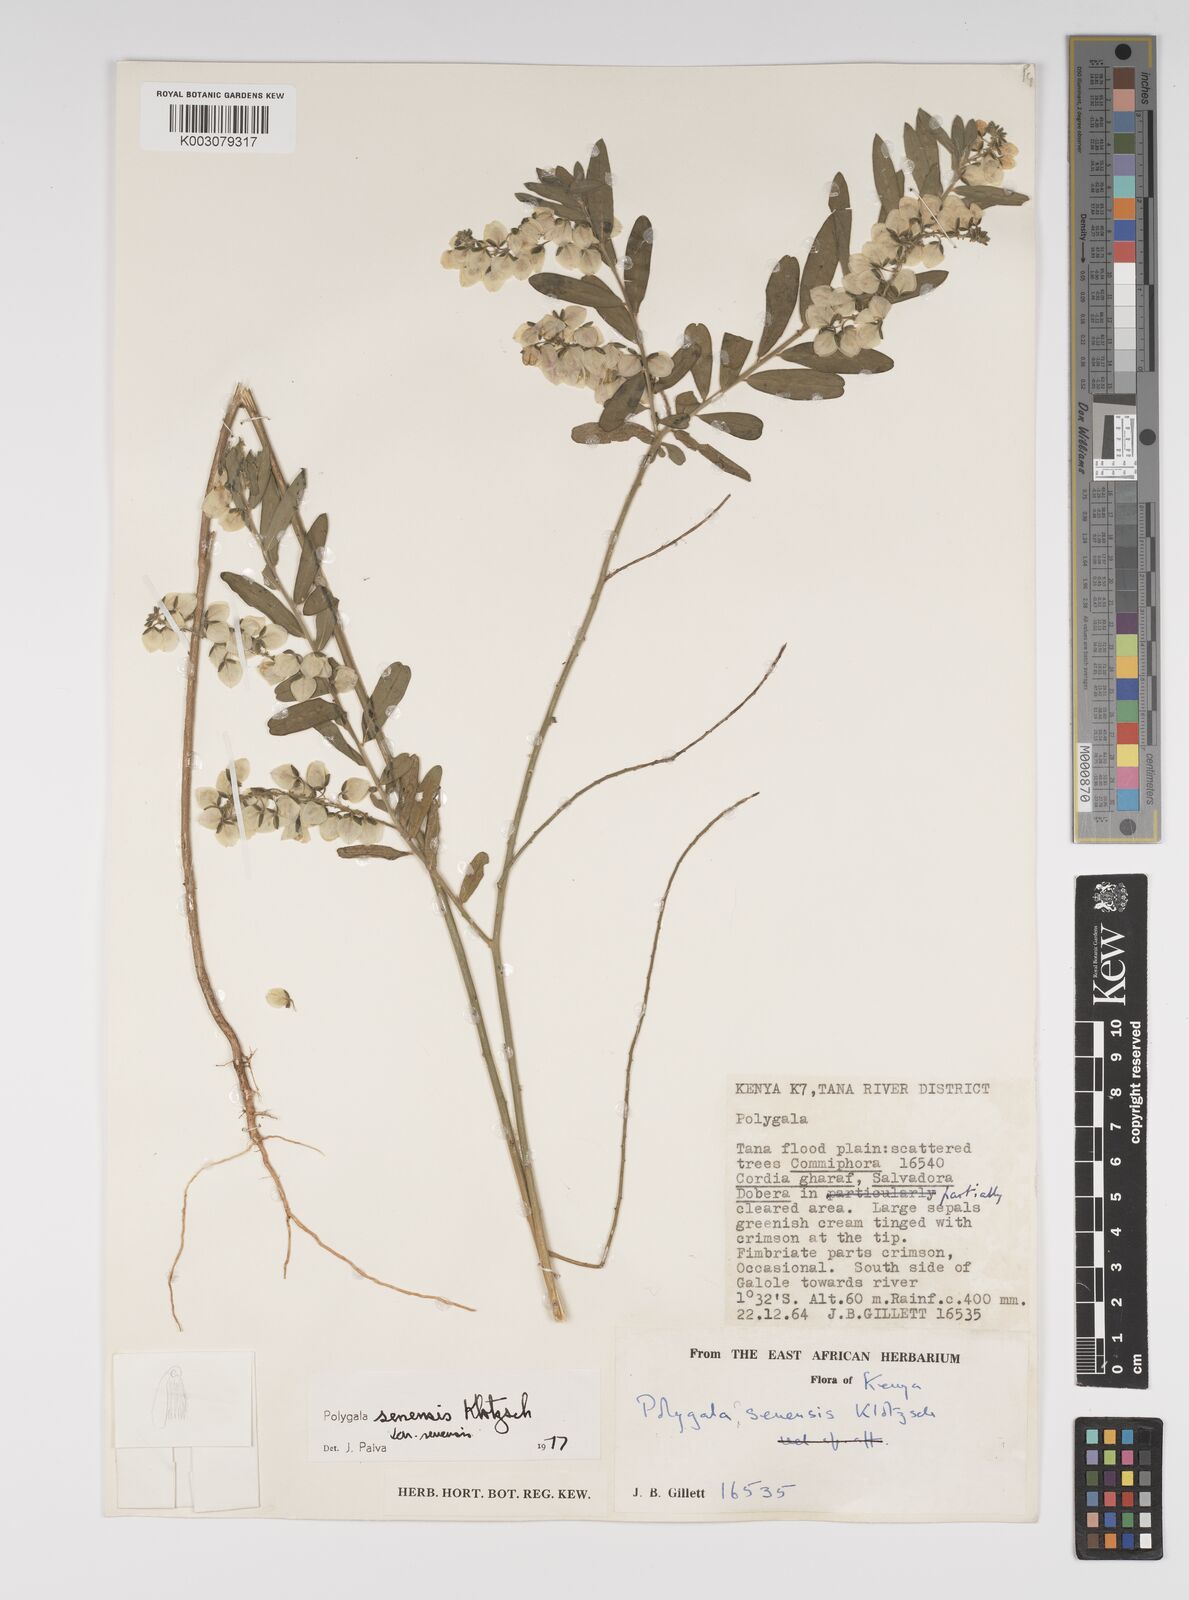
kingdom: Plantae
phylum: Tracheophyta
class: Magnoliopsida
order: Fabales
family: Polygalaceae
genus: Polygala
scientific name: Polygala senensis
